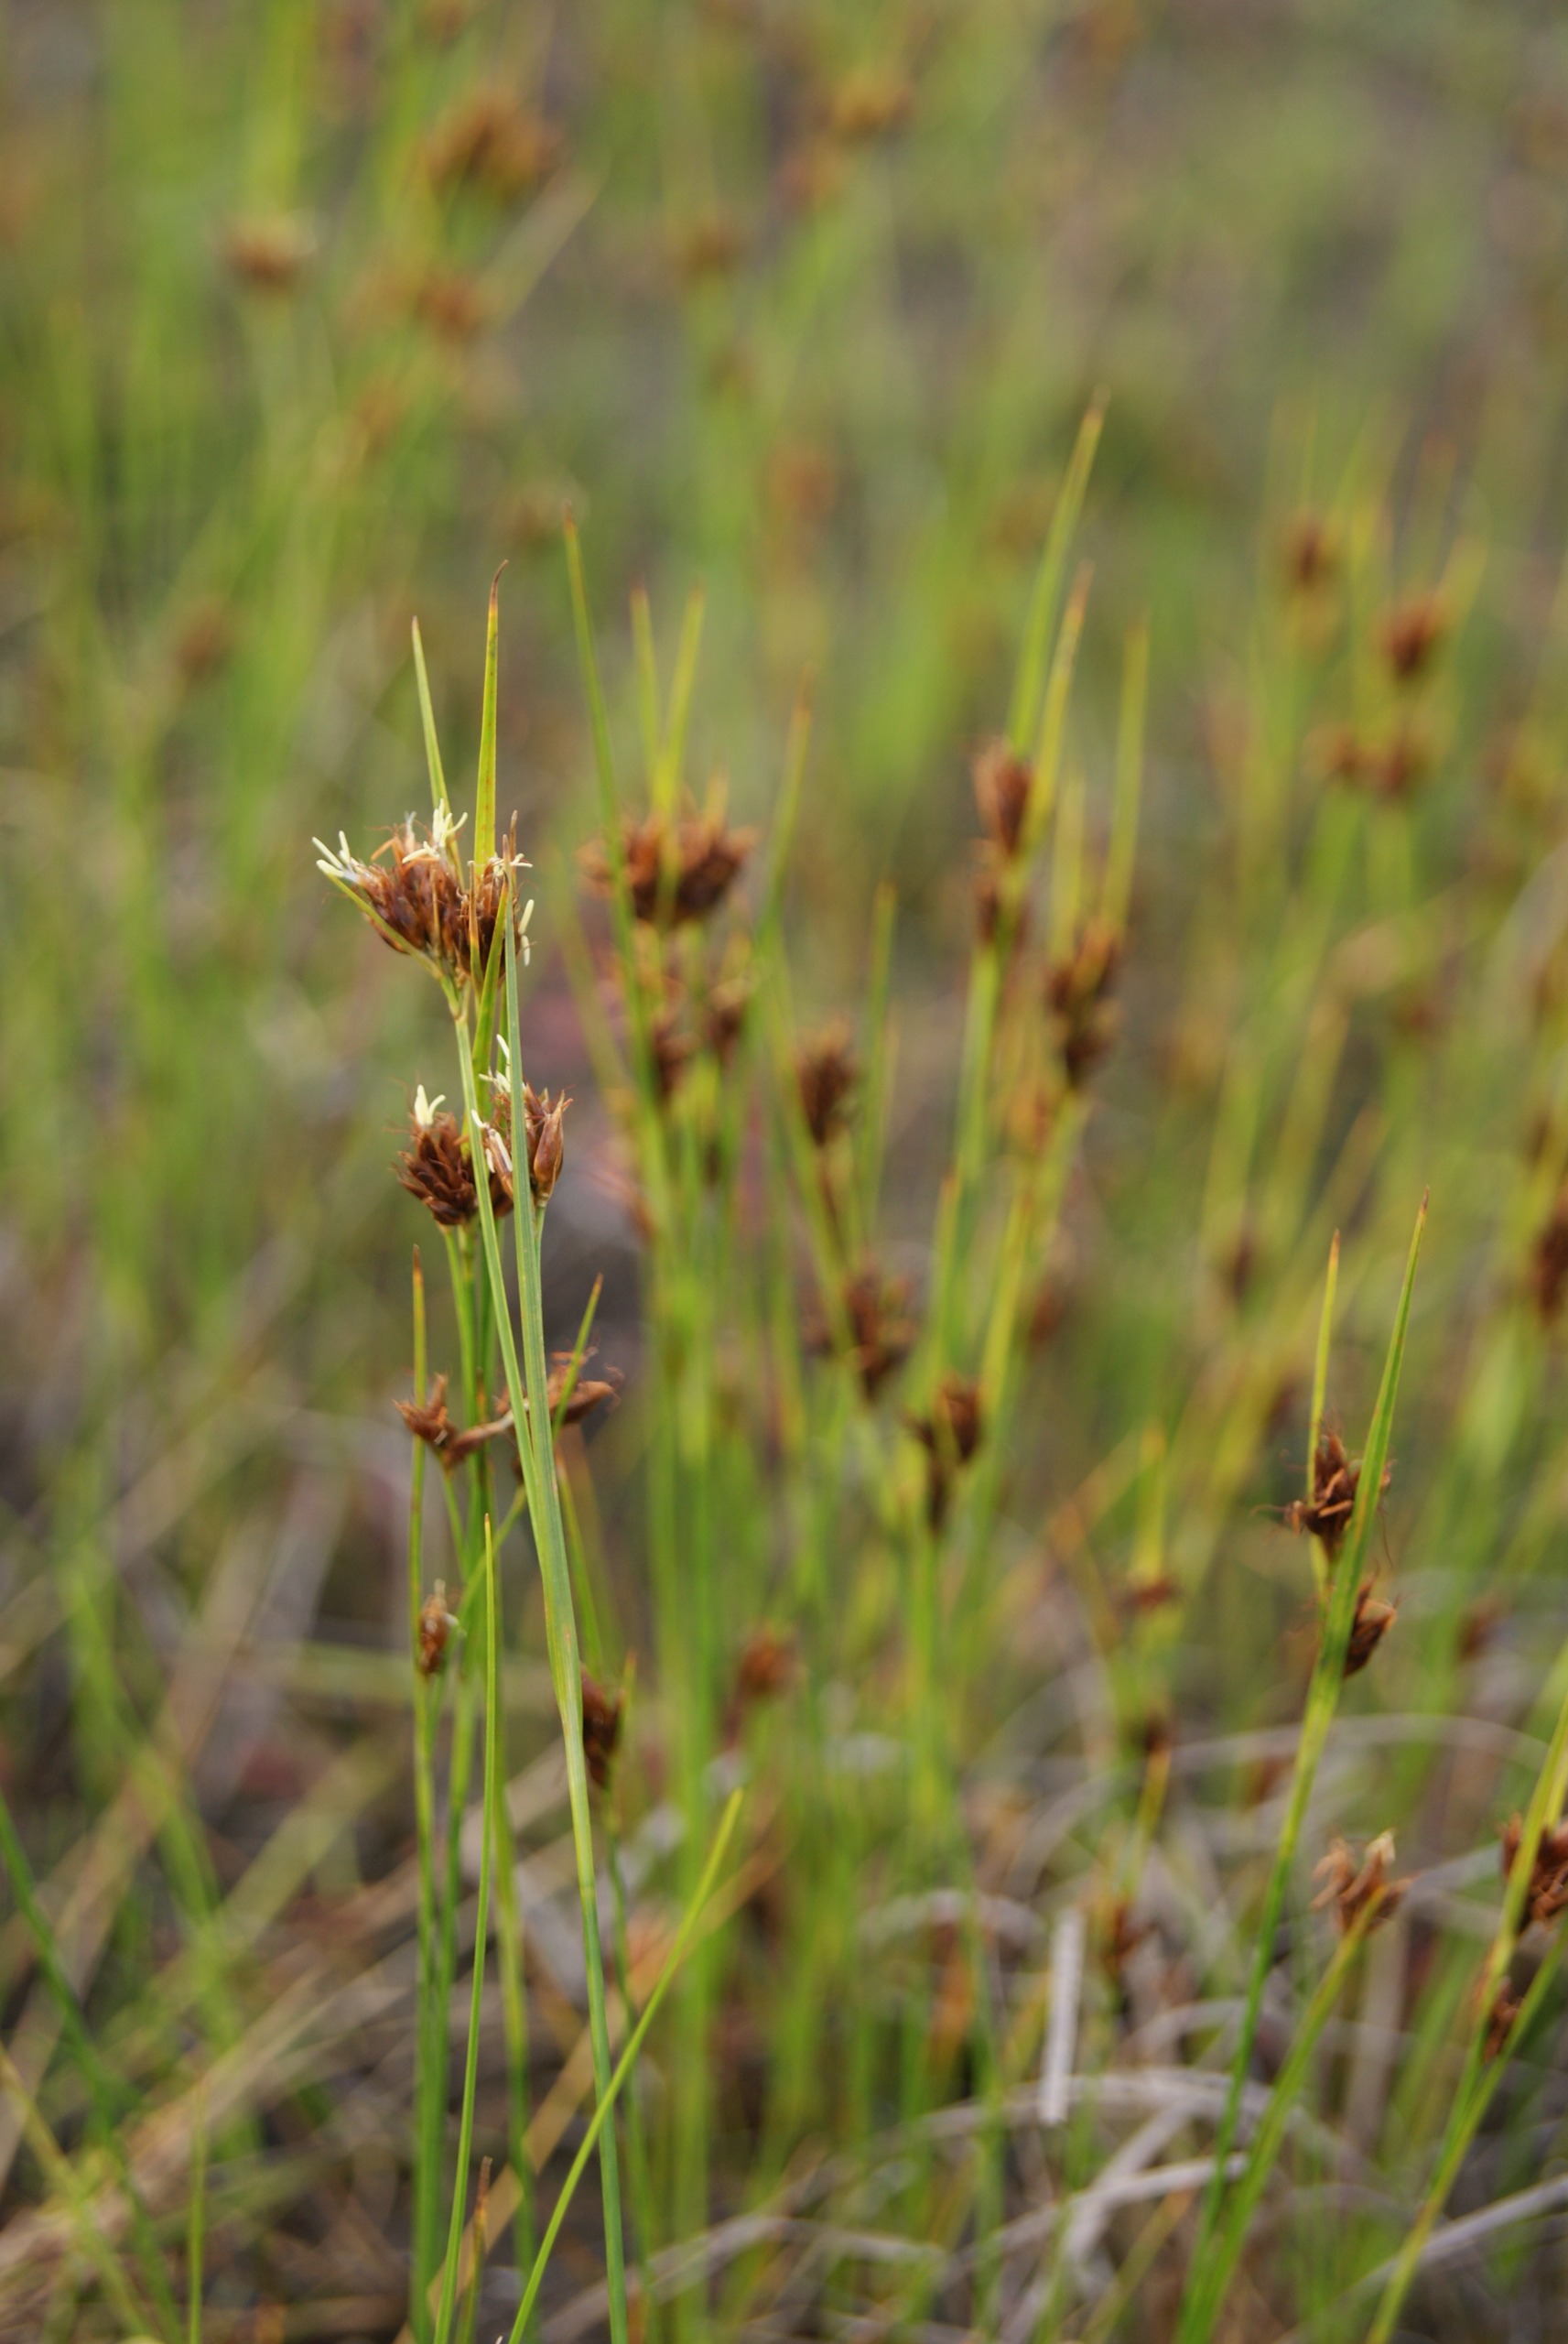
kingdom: Plantae
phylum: Tracheophyta
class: Liliopsida
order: Poales
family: Cyperaceae
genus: Rhynchospora
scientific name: Rhynchospora fusca
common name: Brun næbfrø
